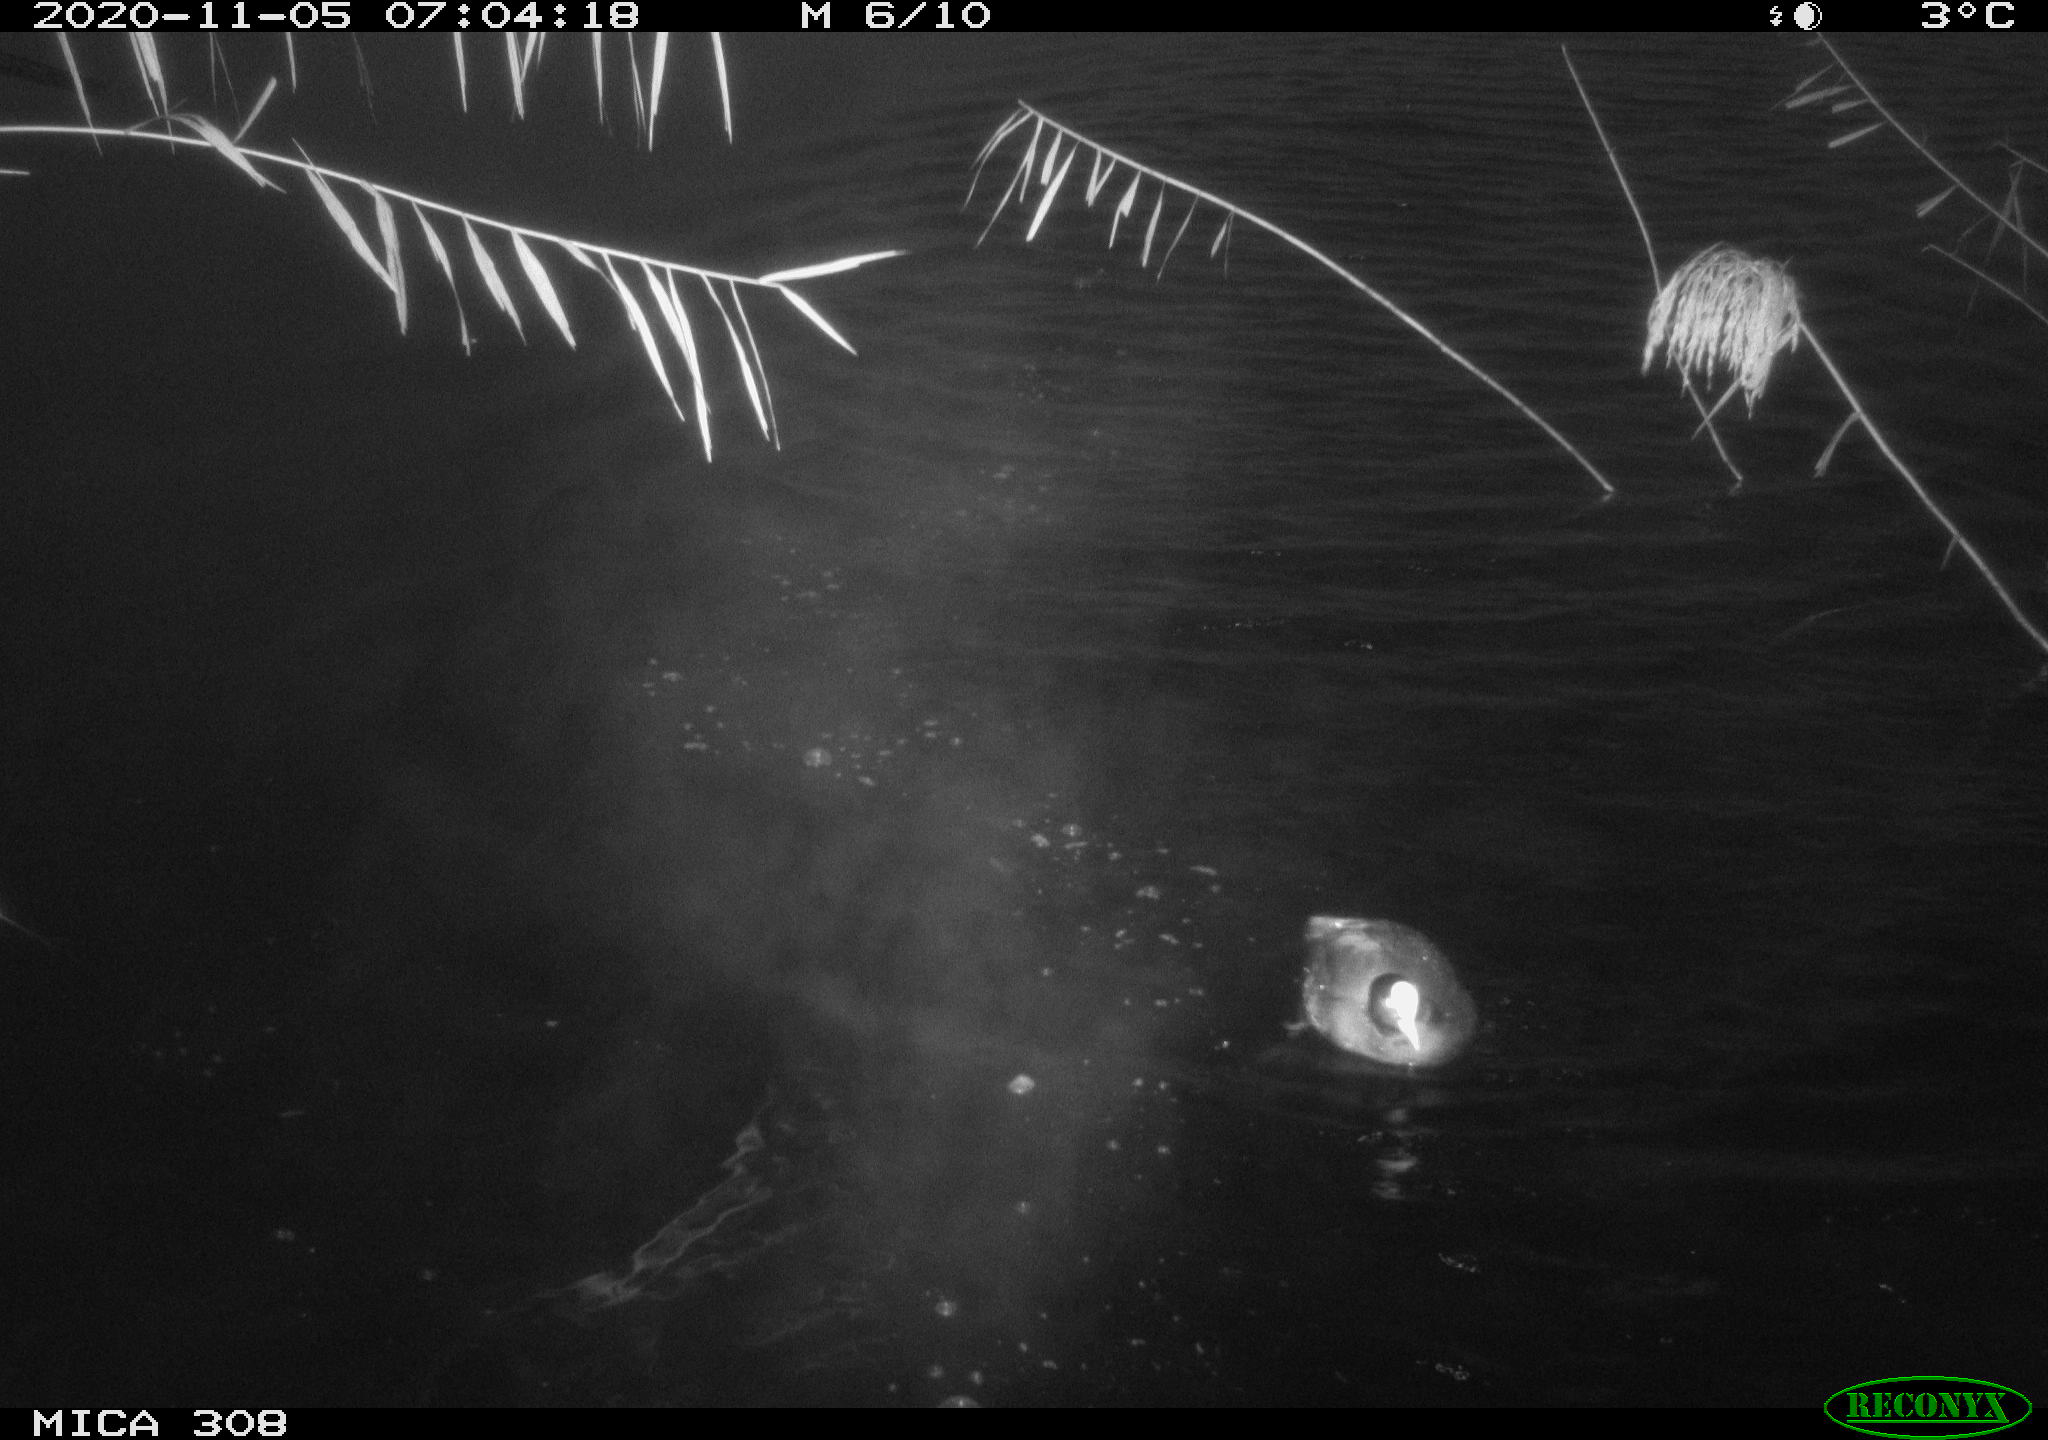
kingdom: Animalia
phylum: Chordata
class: Aves
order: Gruiformes
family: Rallidae
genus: Fulica
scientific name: Fulica atra
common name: Eurasian coot
